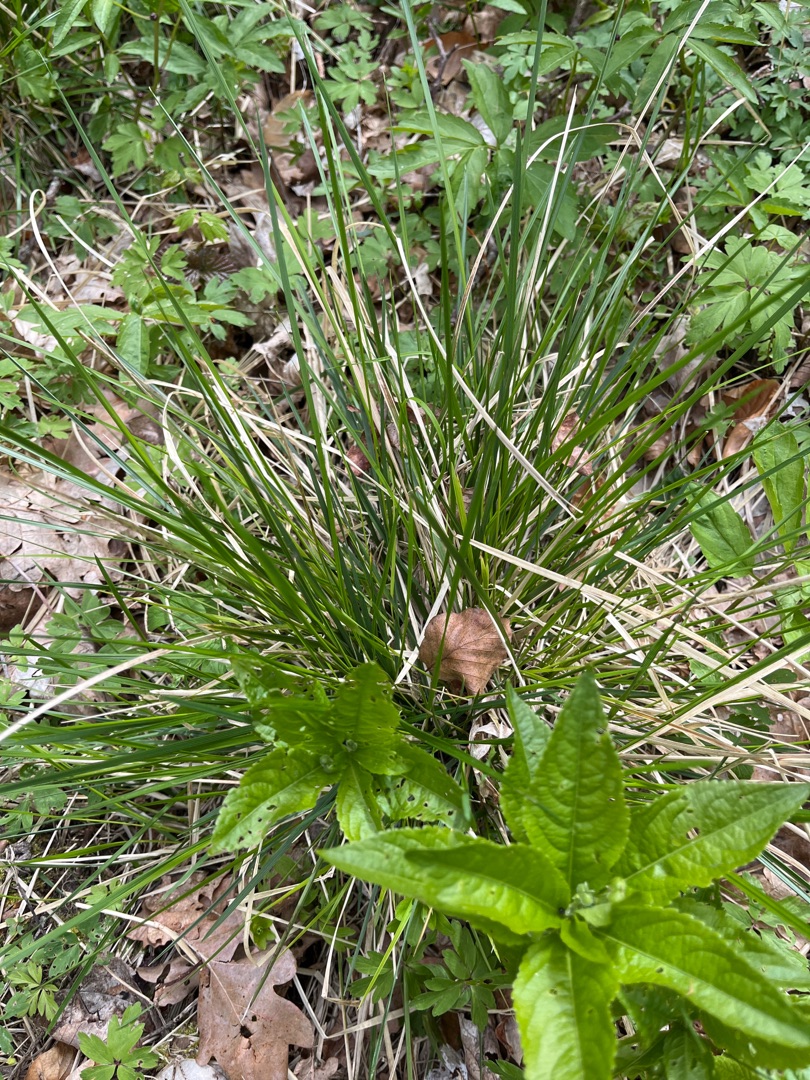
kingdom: Plantae
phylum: Tracheophyta
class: Liliopsida
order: Poales
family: Poaceae
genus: Deschampsia
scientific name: Deschampsia cespitosa
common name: Mose-bunke
